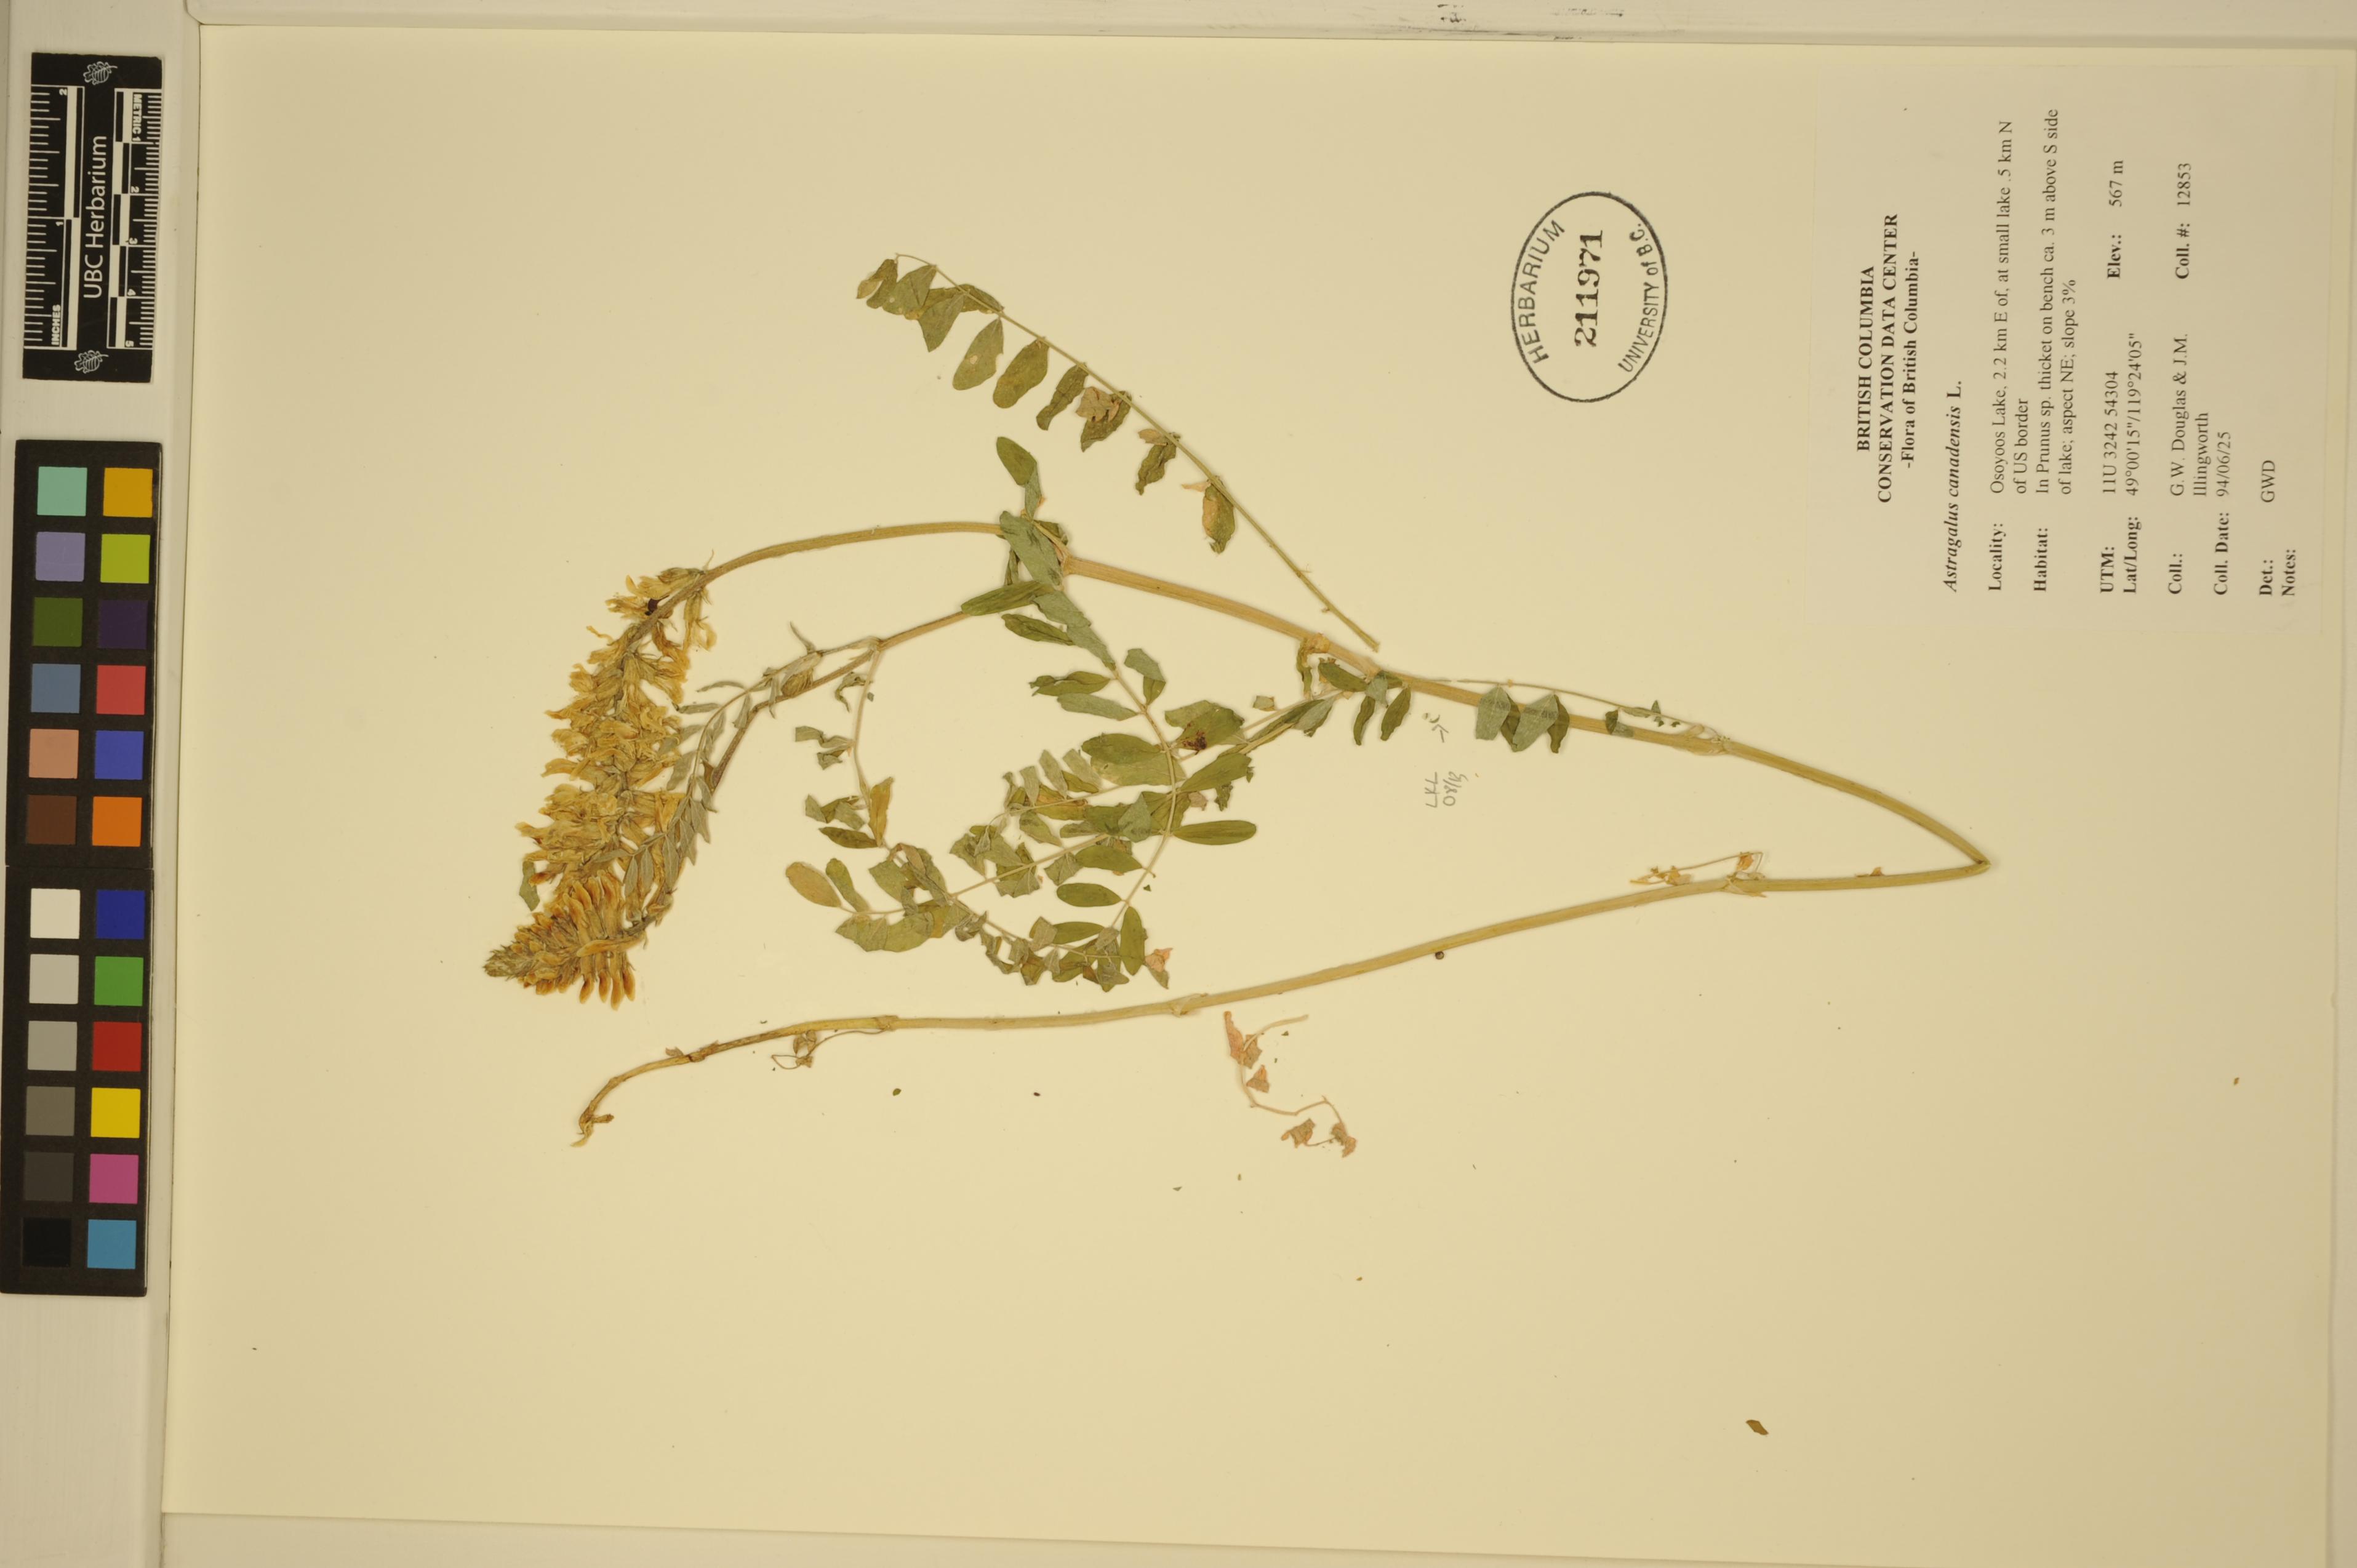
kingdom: Plantae
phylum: Tracheophyta
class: Magnoliopsida
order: Fabales
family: Fabaceae
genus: Astragalus
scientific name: Astragalus canadensis
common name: Canada milk-vetch
